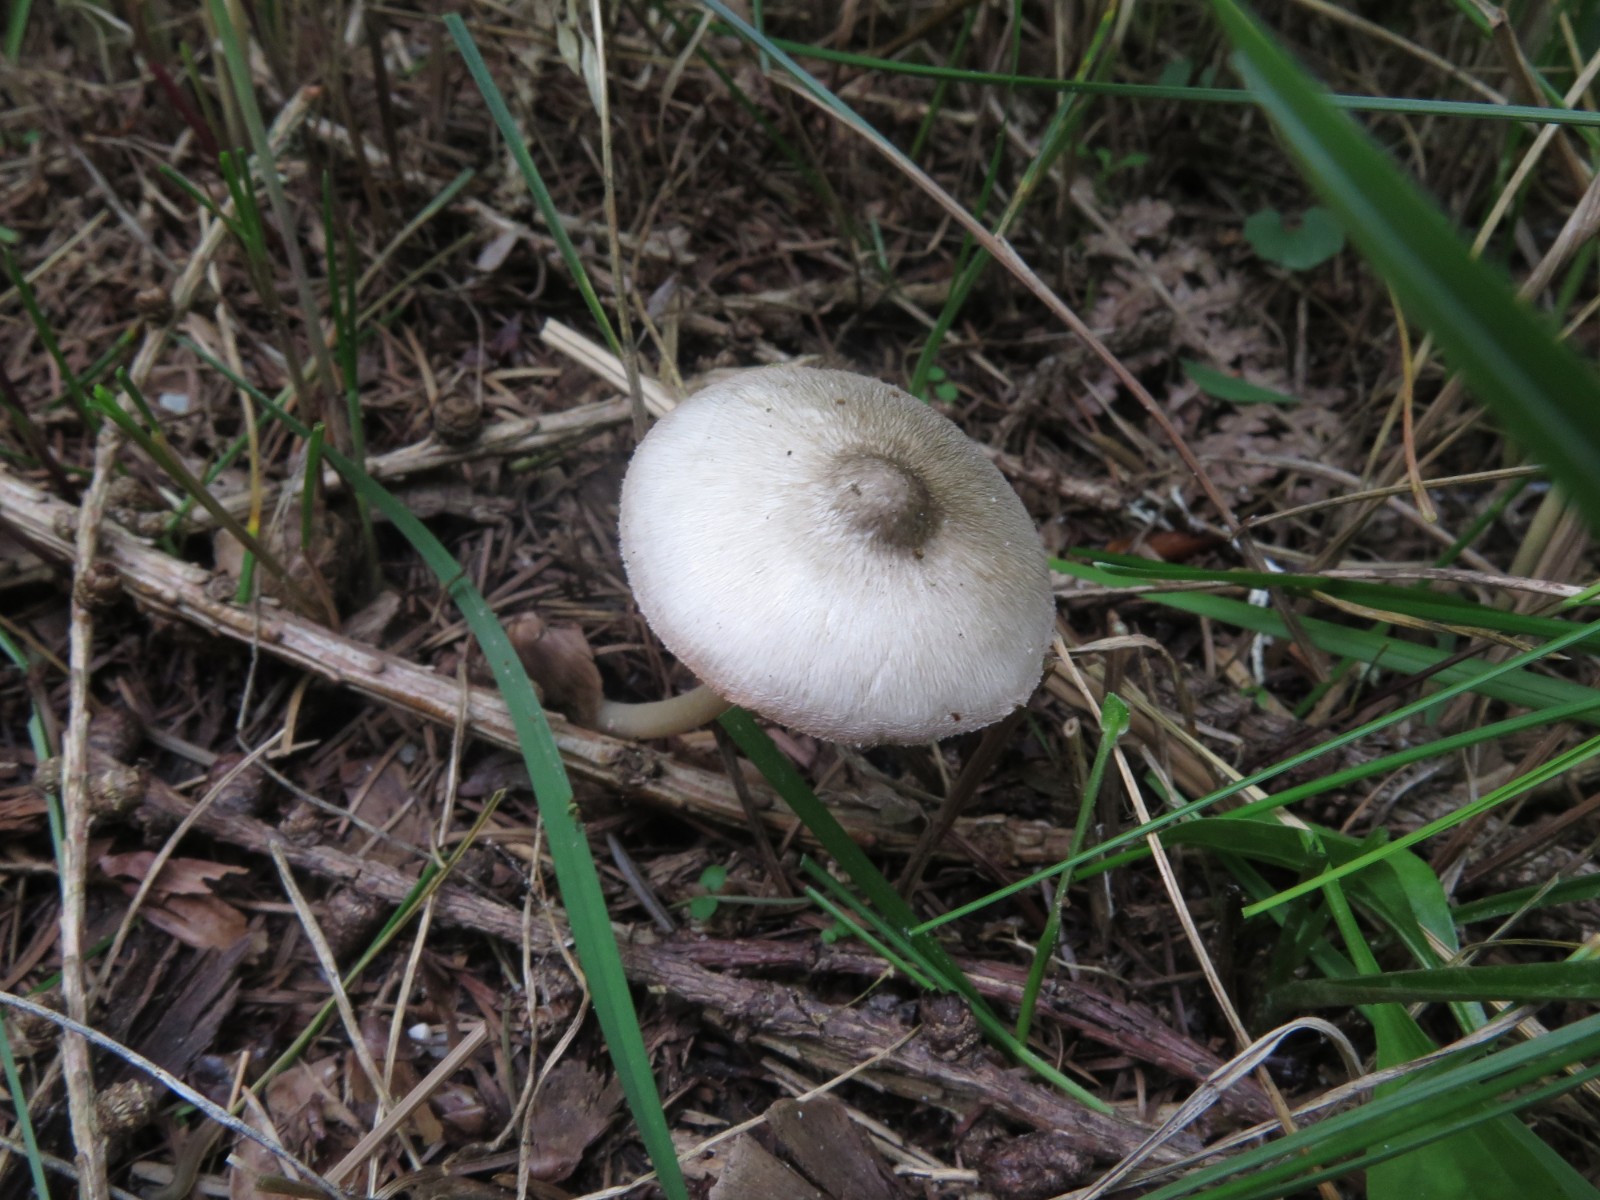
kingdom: Fungi
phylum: Basidiomycota
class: Agaricomycetes
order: Agaricales
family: Pluteaceae
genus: Pluteus
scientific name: Pluteus salicinus
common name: stiv skærmhat
